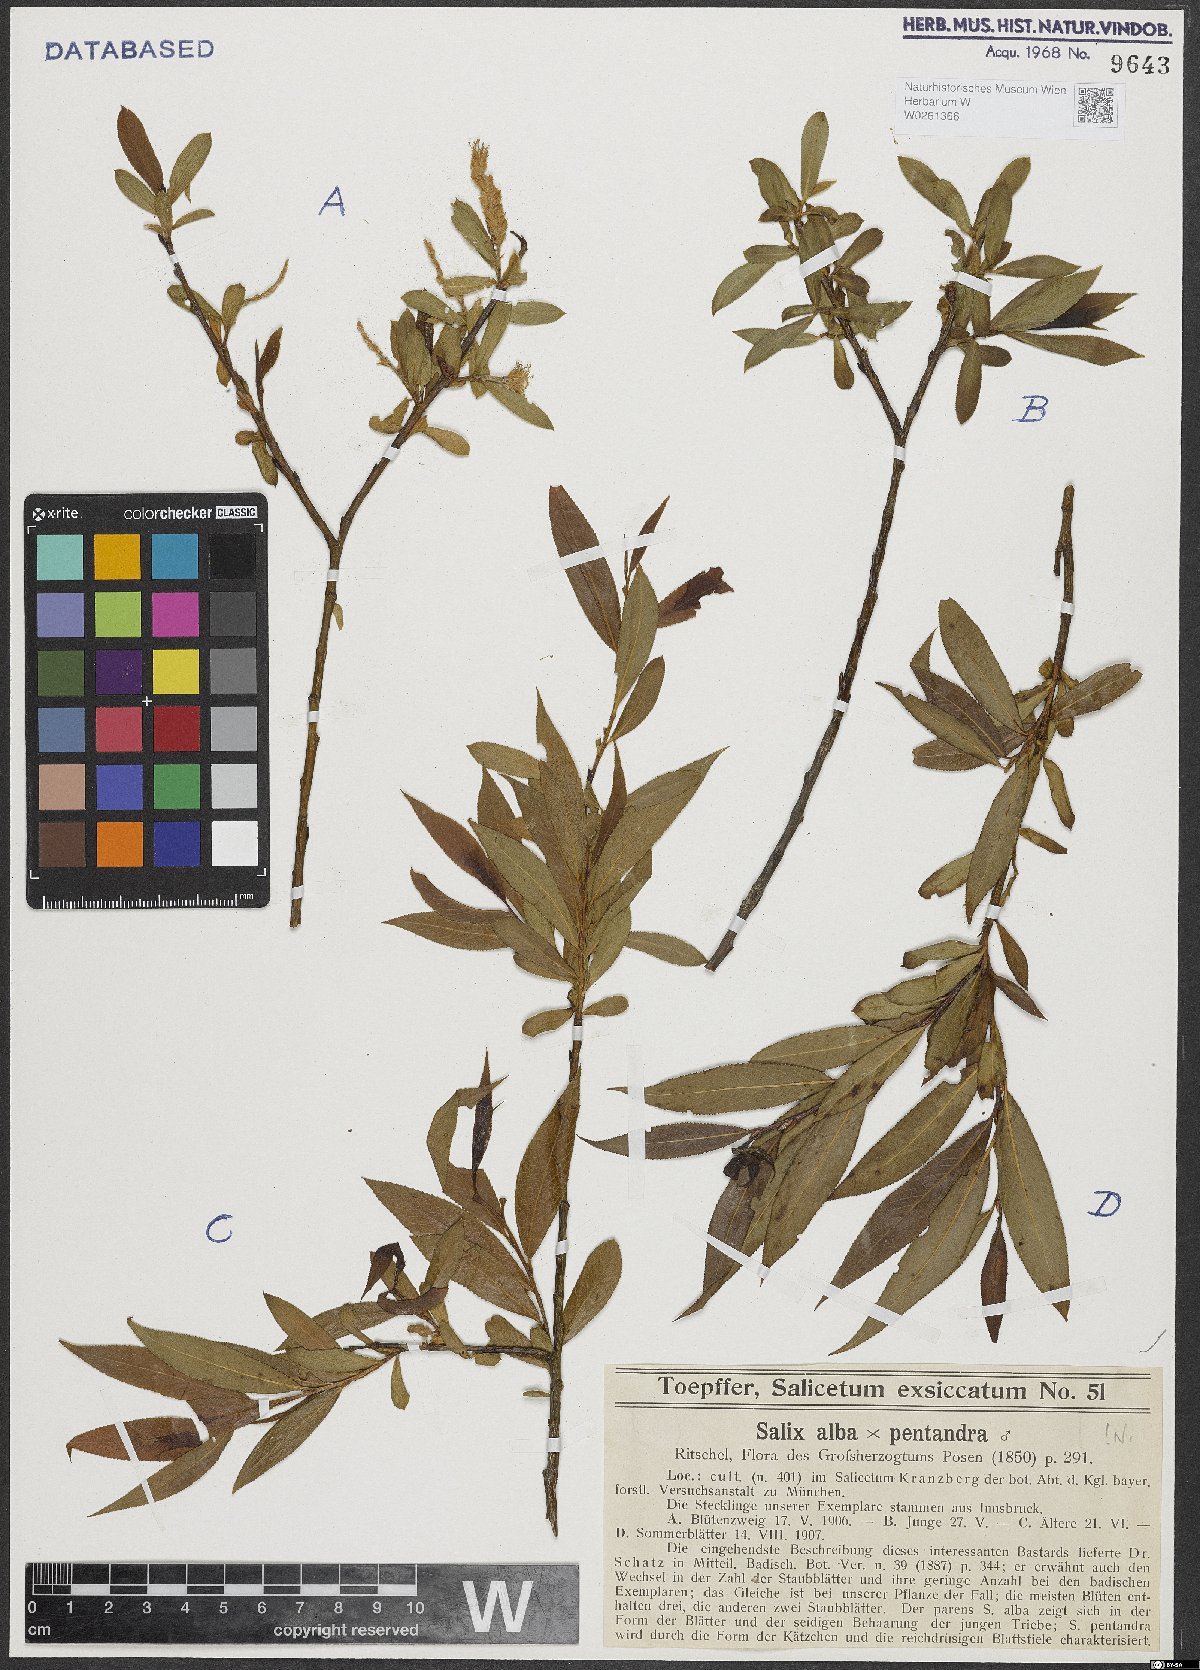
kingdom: Plantae
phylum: Tracheophyta
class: Magnoliopsida
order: Malpighiales
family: Salicaceae
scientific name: Salicaceae
